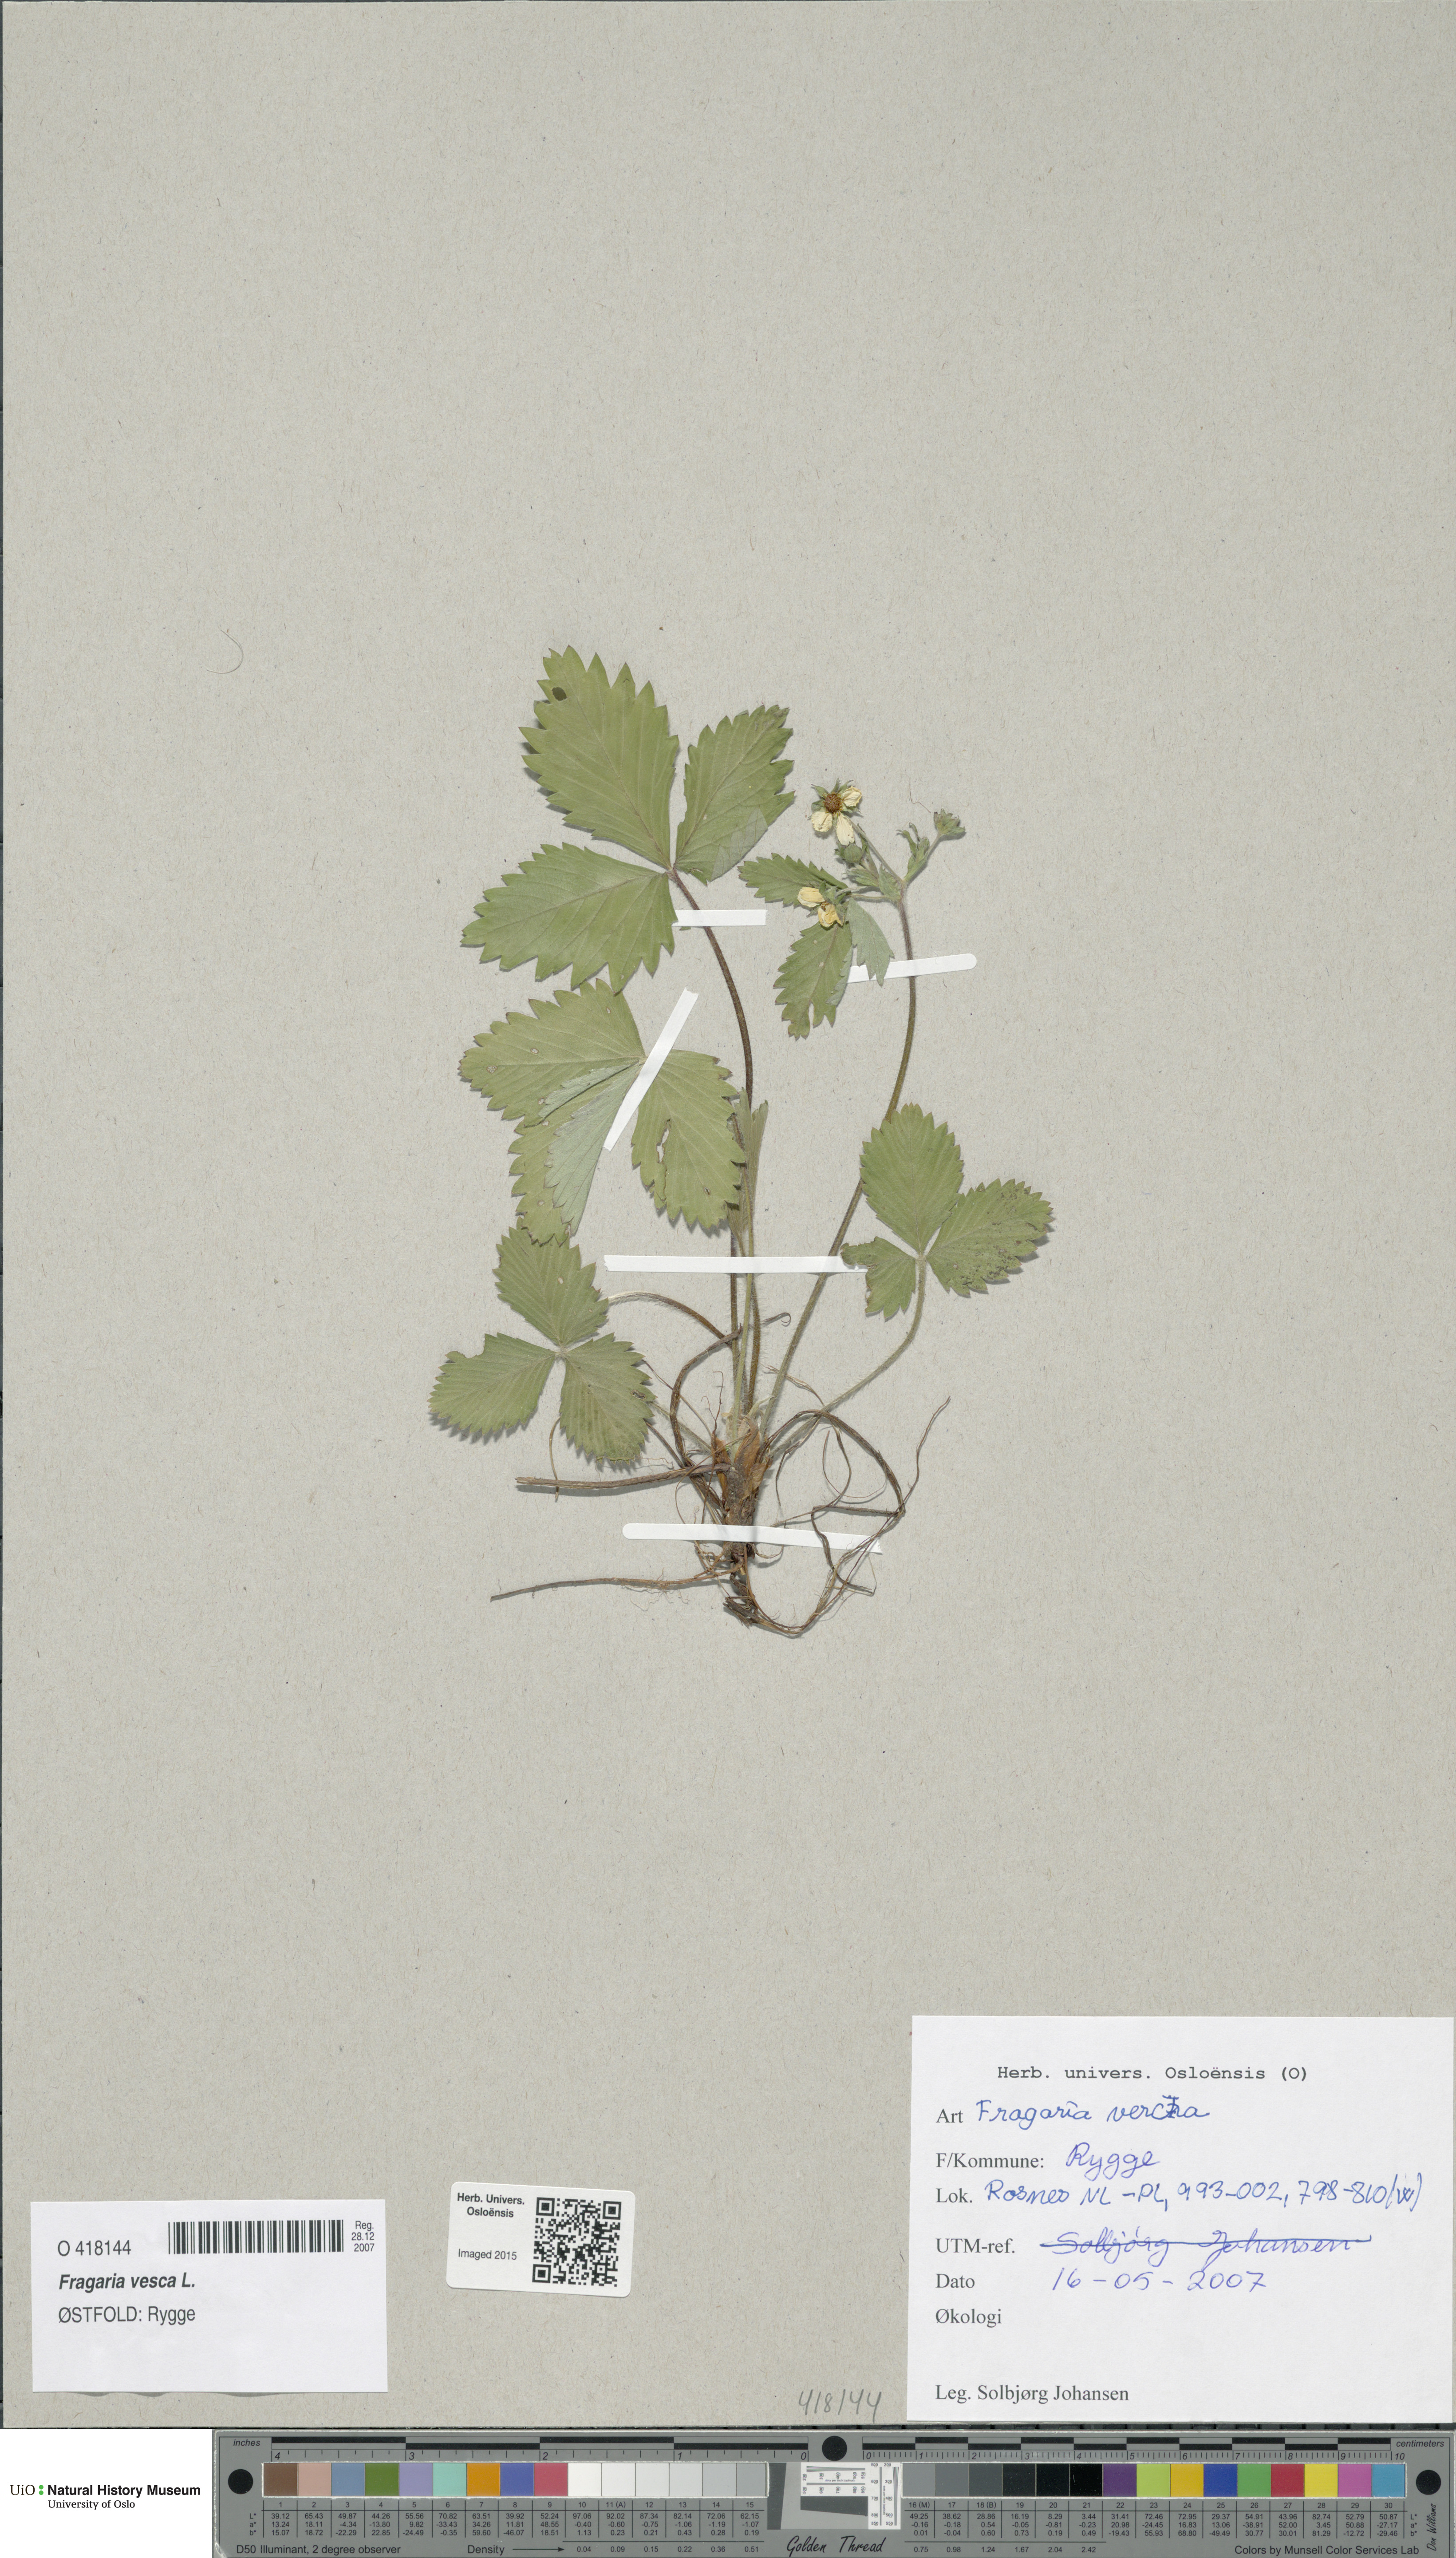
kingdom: Plantae
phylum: Tracheophyta
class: Magnoliopsida
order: Rosales
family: Rosaceae
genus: Fragaria
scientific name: Fragaria vesca
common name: Wild strawberry
